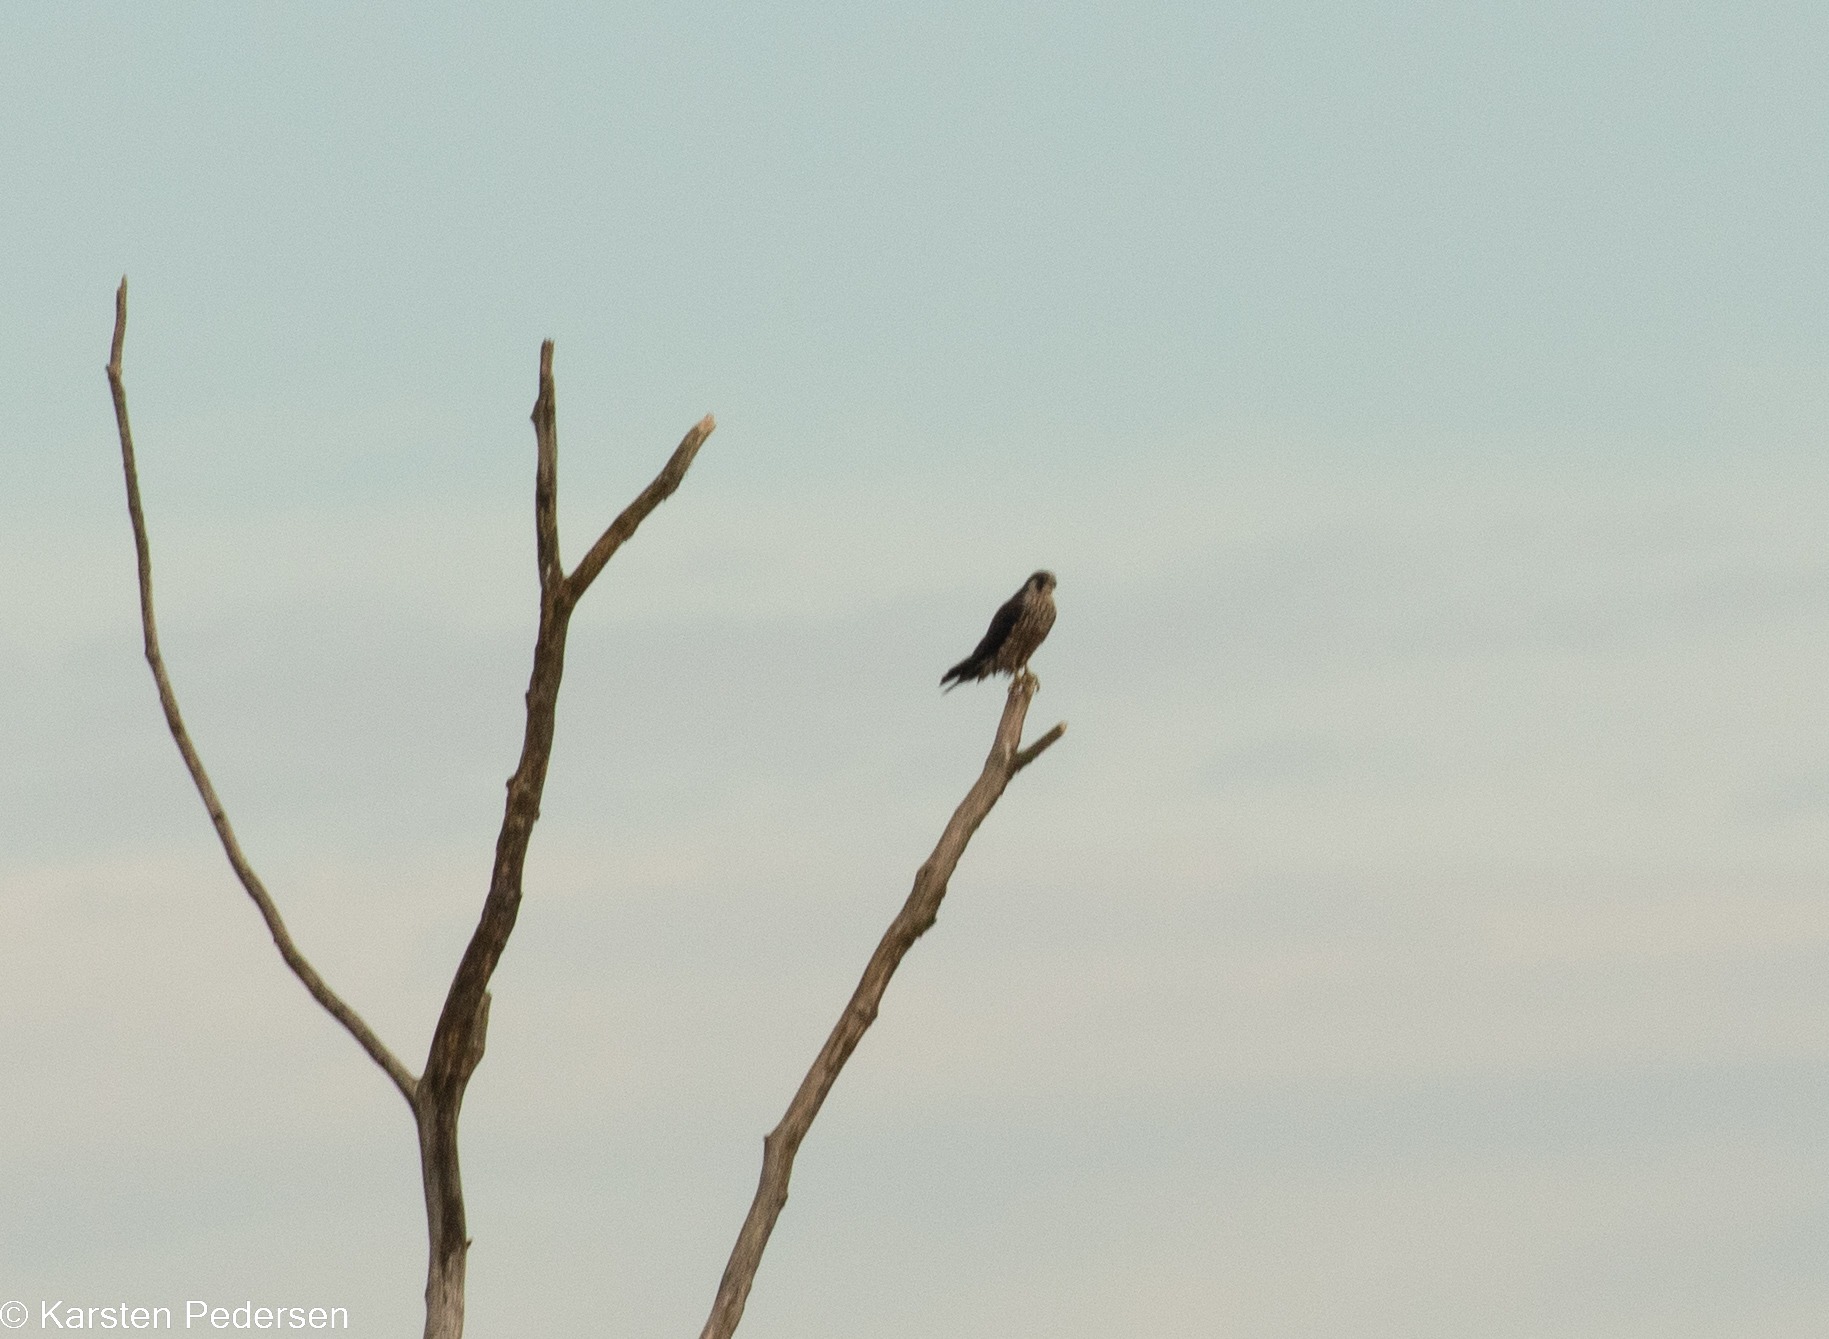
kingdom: Animalia
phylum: Chordata
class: Aves
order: Falconiformes
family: Falconidae
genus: Falco
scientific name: Falco peregrinus
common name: Vandrefalk
